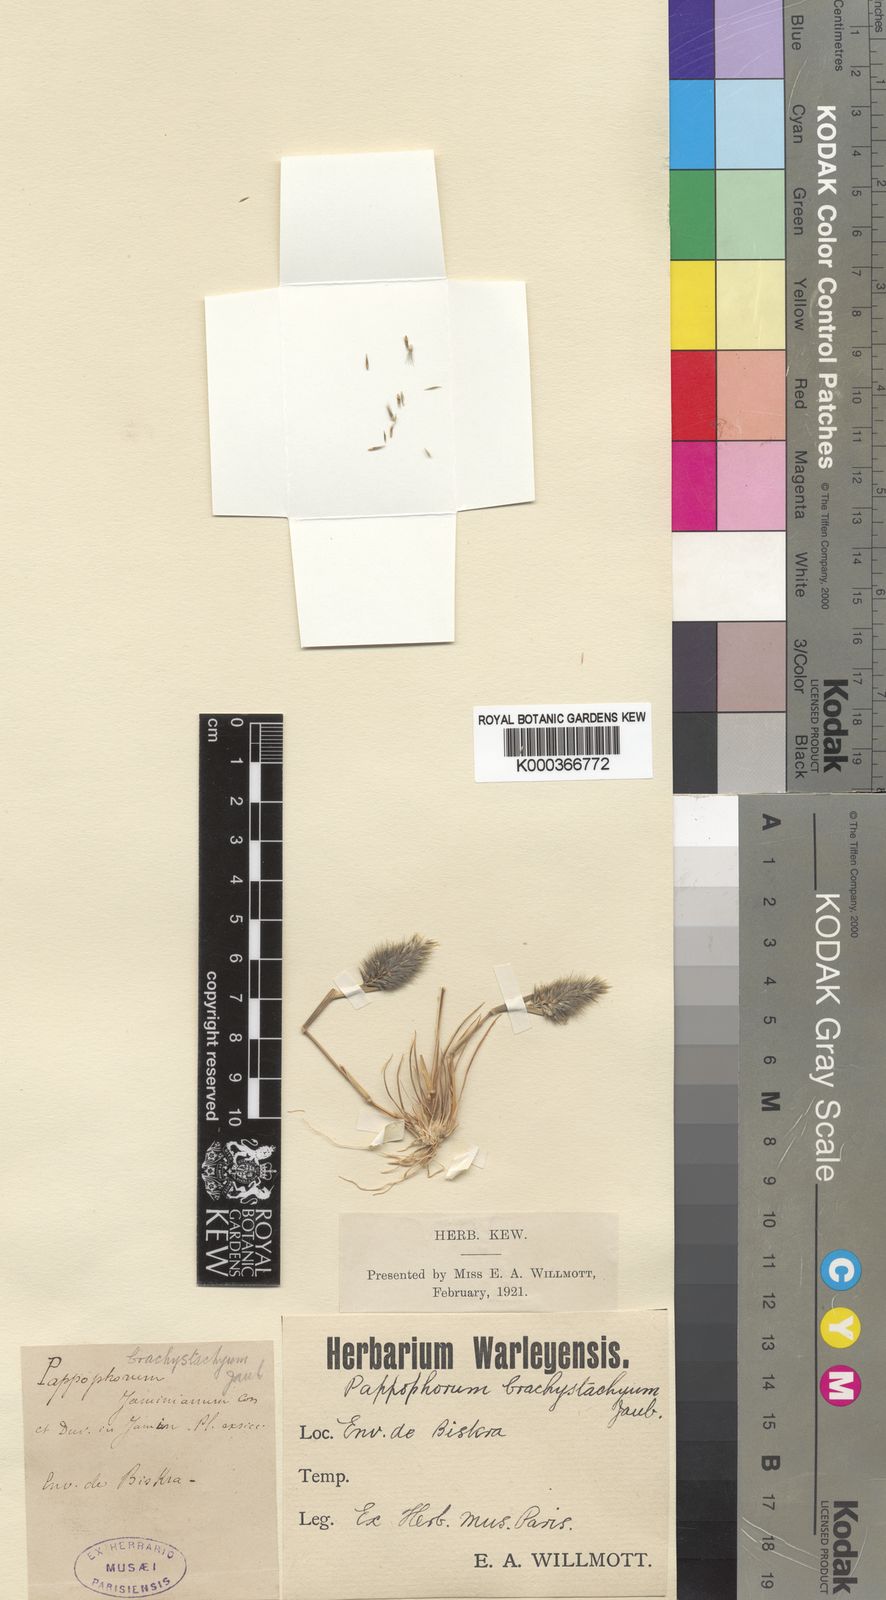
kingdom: Plantae
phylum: Tracheophyta
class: Liliopsida
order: Poales
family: Poaceae
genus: Enneapogon
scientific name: Enneapogon desvauxii
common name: Feather pappus grass
